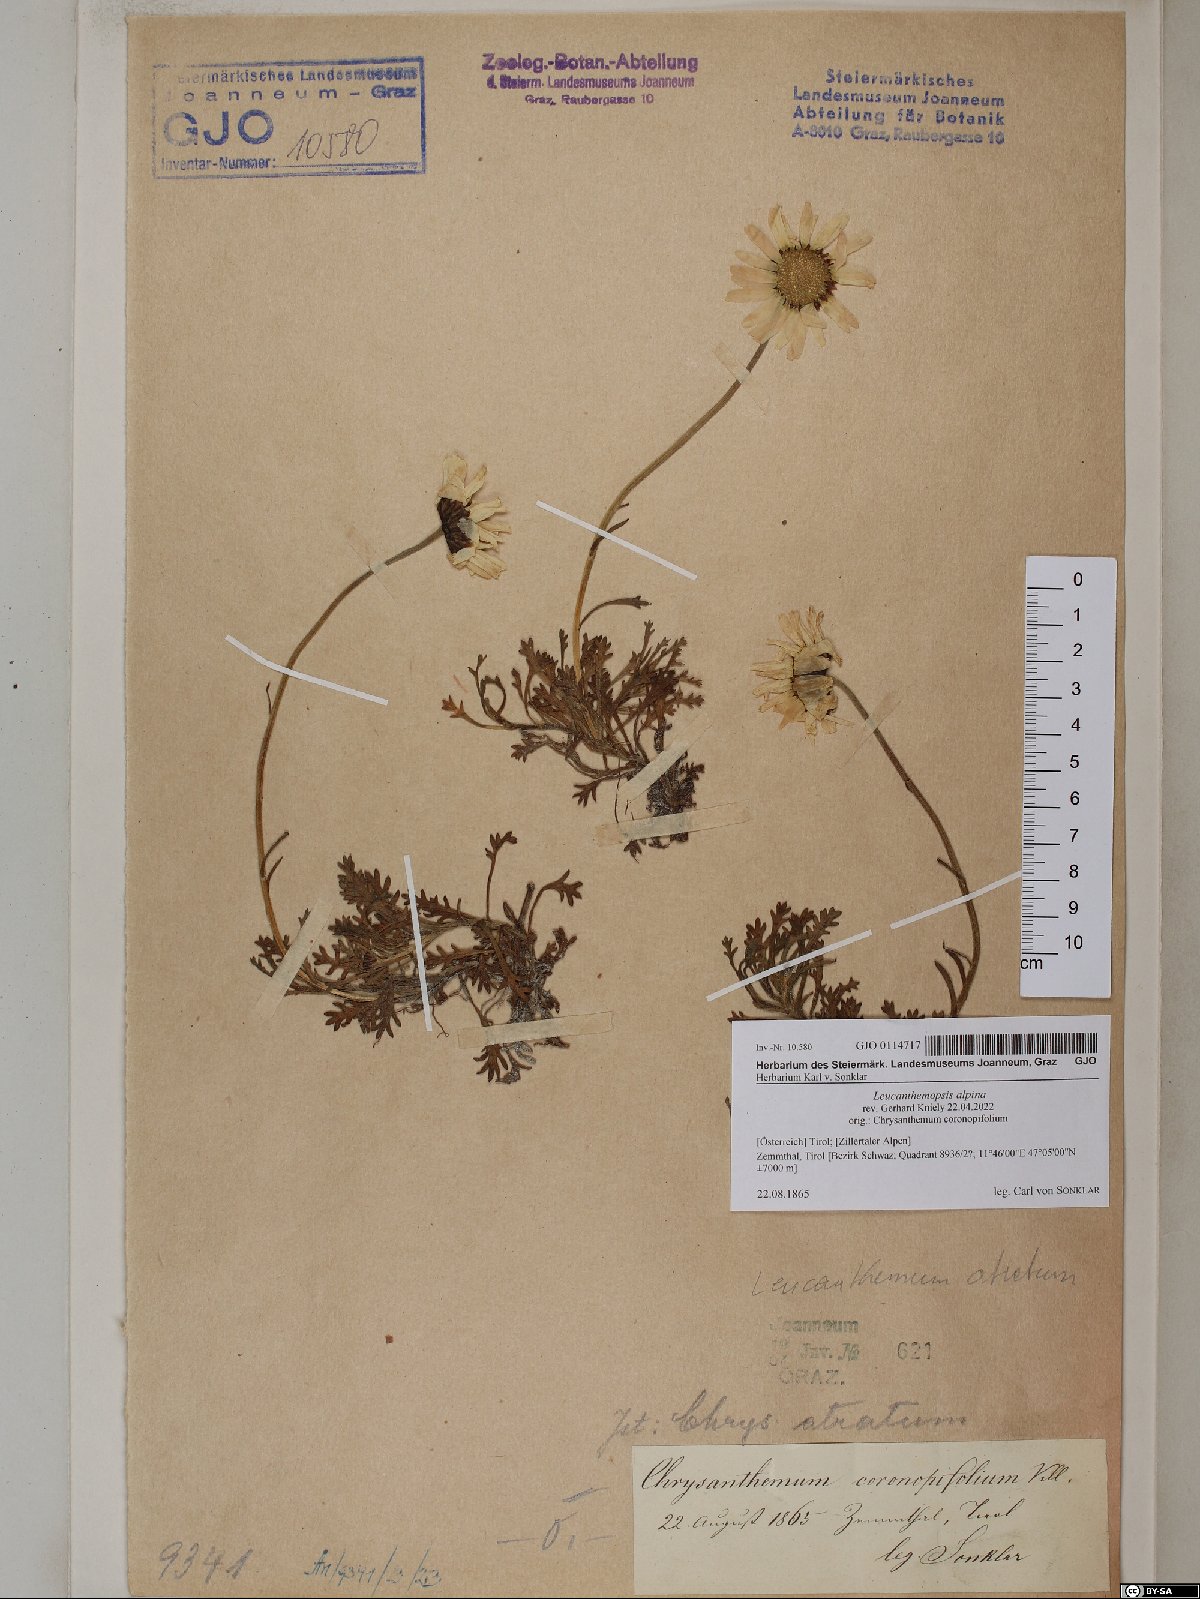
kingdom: Plantae
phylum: Tracheophyta
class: Magnoliopsida
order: Asterales
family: Asteraceae
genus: Leucanthemopsis
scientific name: Leucanthemopsis alpina
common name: Alpine moon daisy
